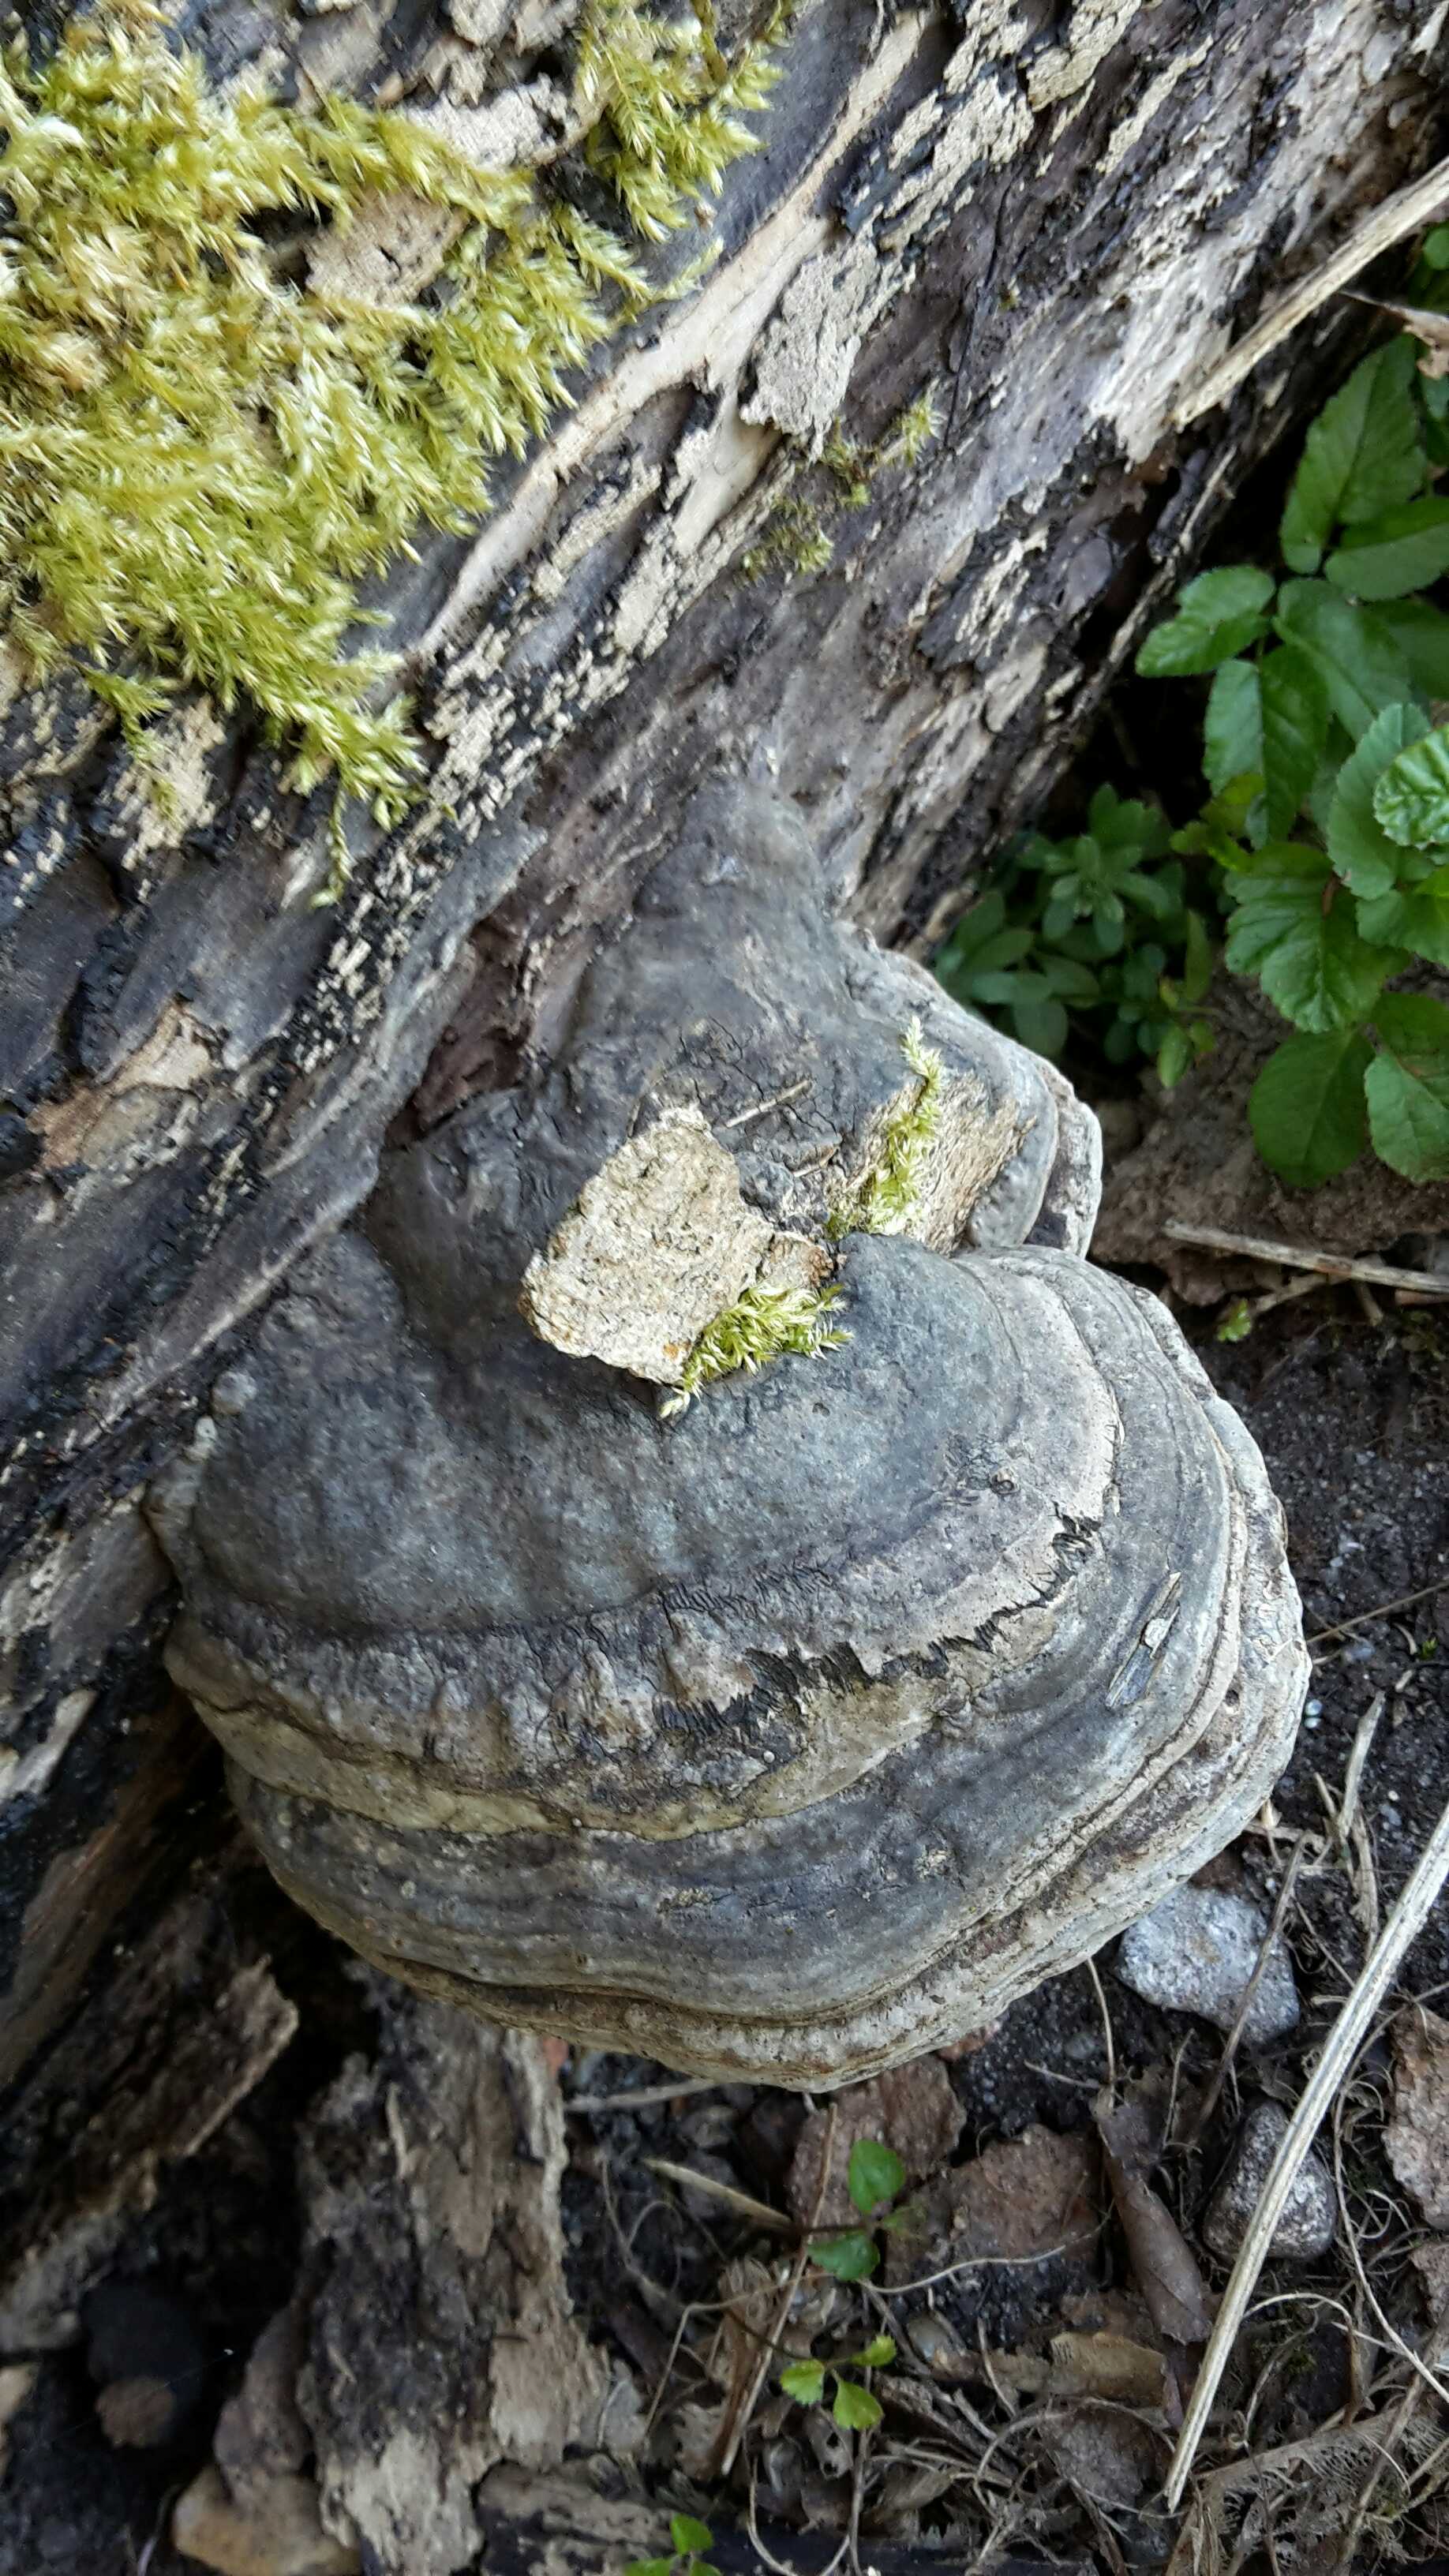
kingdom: Fungi
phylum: Basidiomycota
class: Agaricomycetes
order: Polyporales
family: Polyporaceae
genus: Fomes
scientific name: Fomes fomentarius
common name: tøndersvamp
